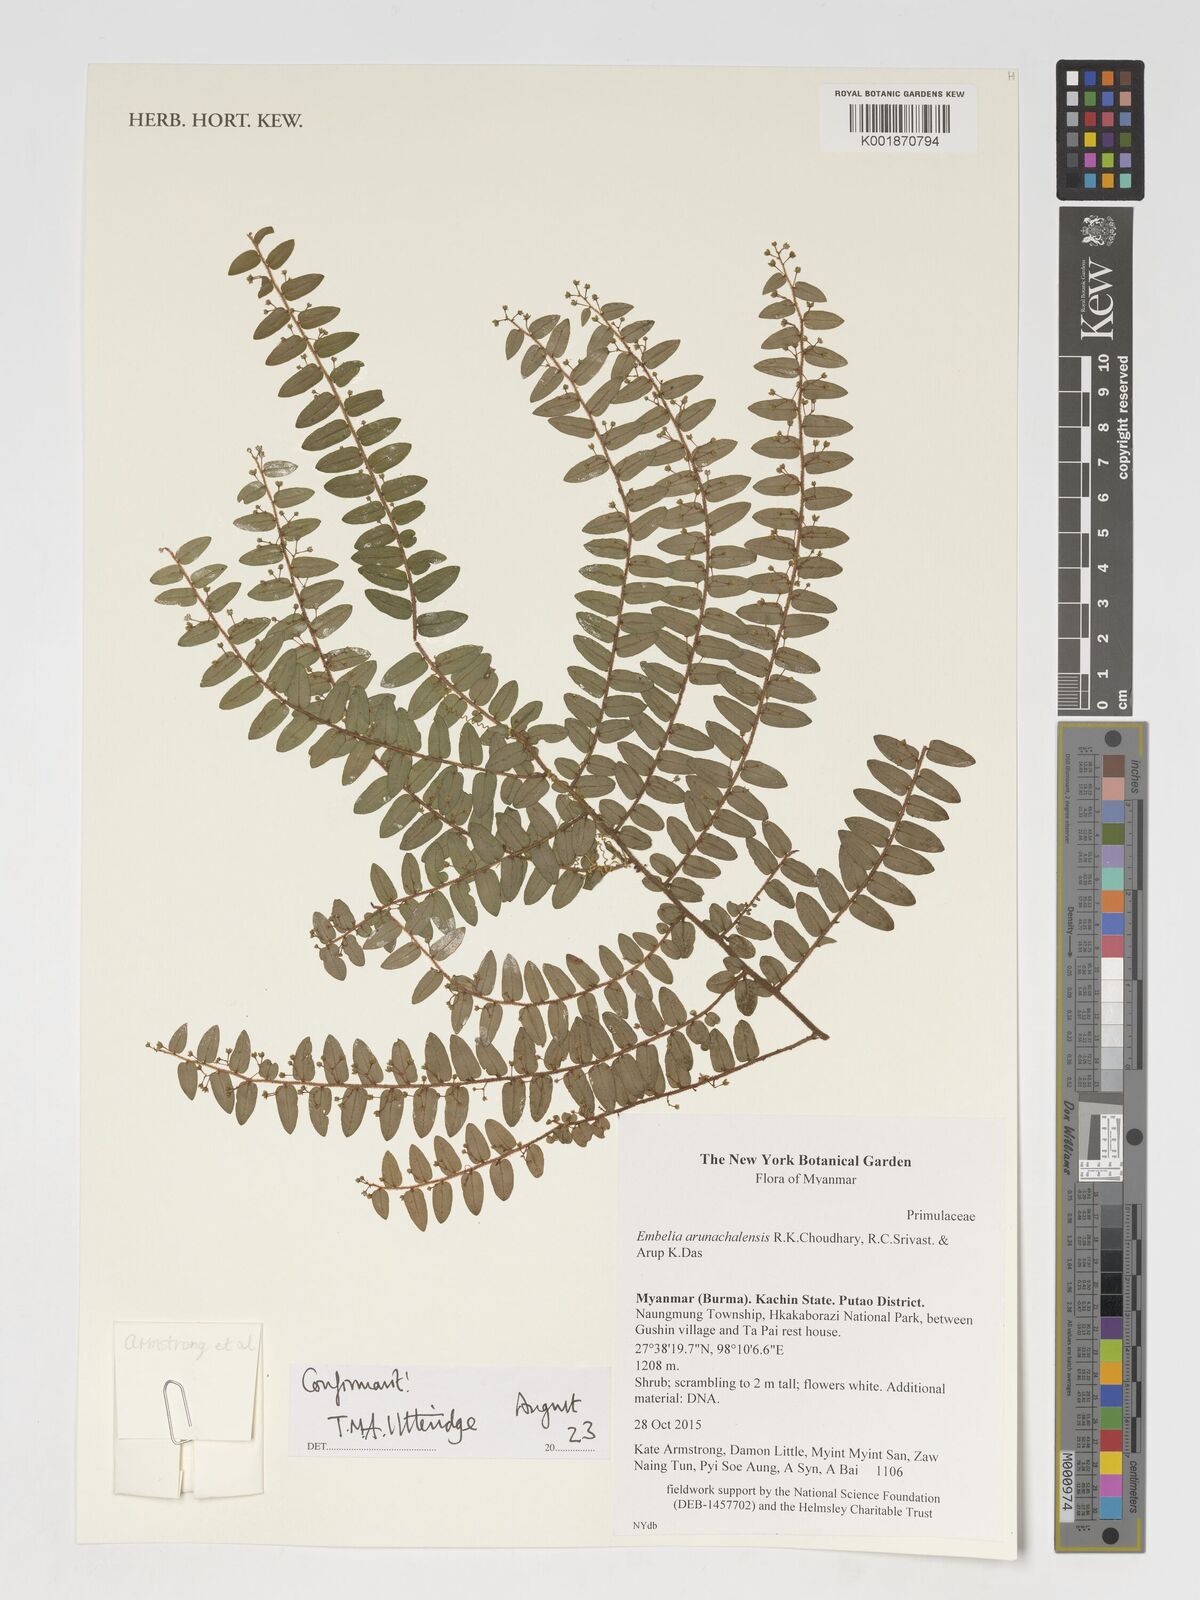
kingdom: Plantae
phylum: Tracheophyta
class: Magnoliopsida
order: Ericales
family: Primulaceae
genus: Embelia
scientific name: Embelia arunachalensis
